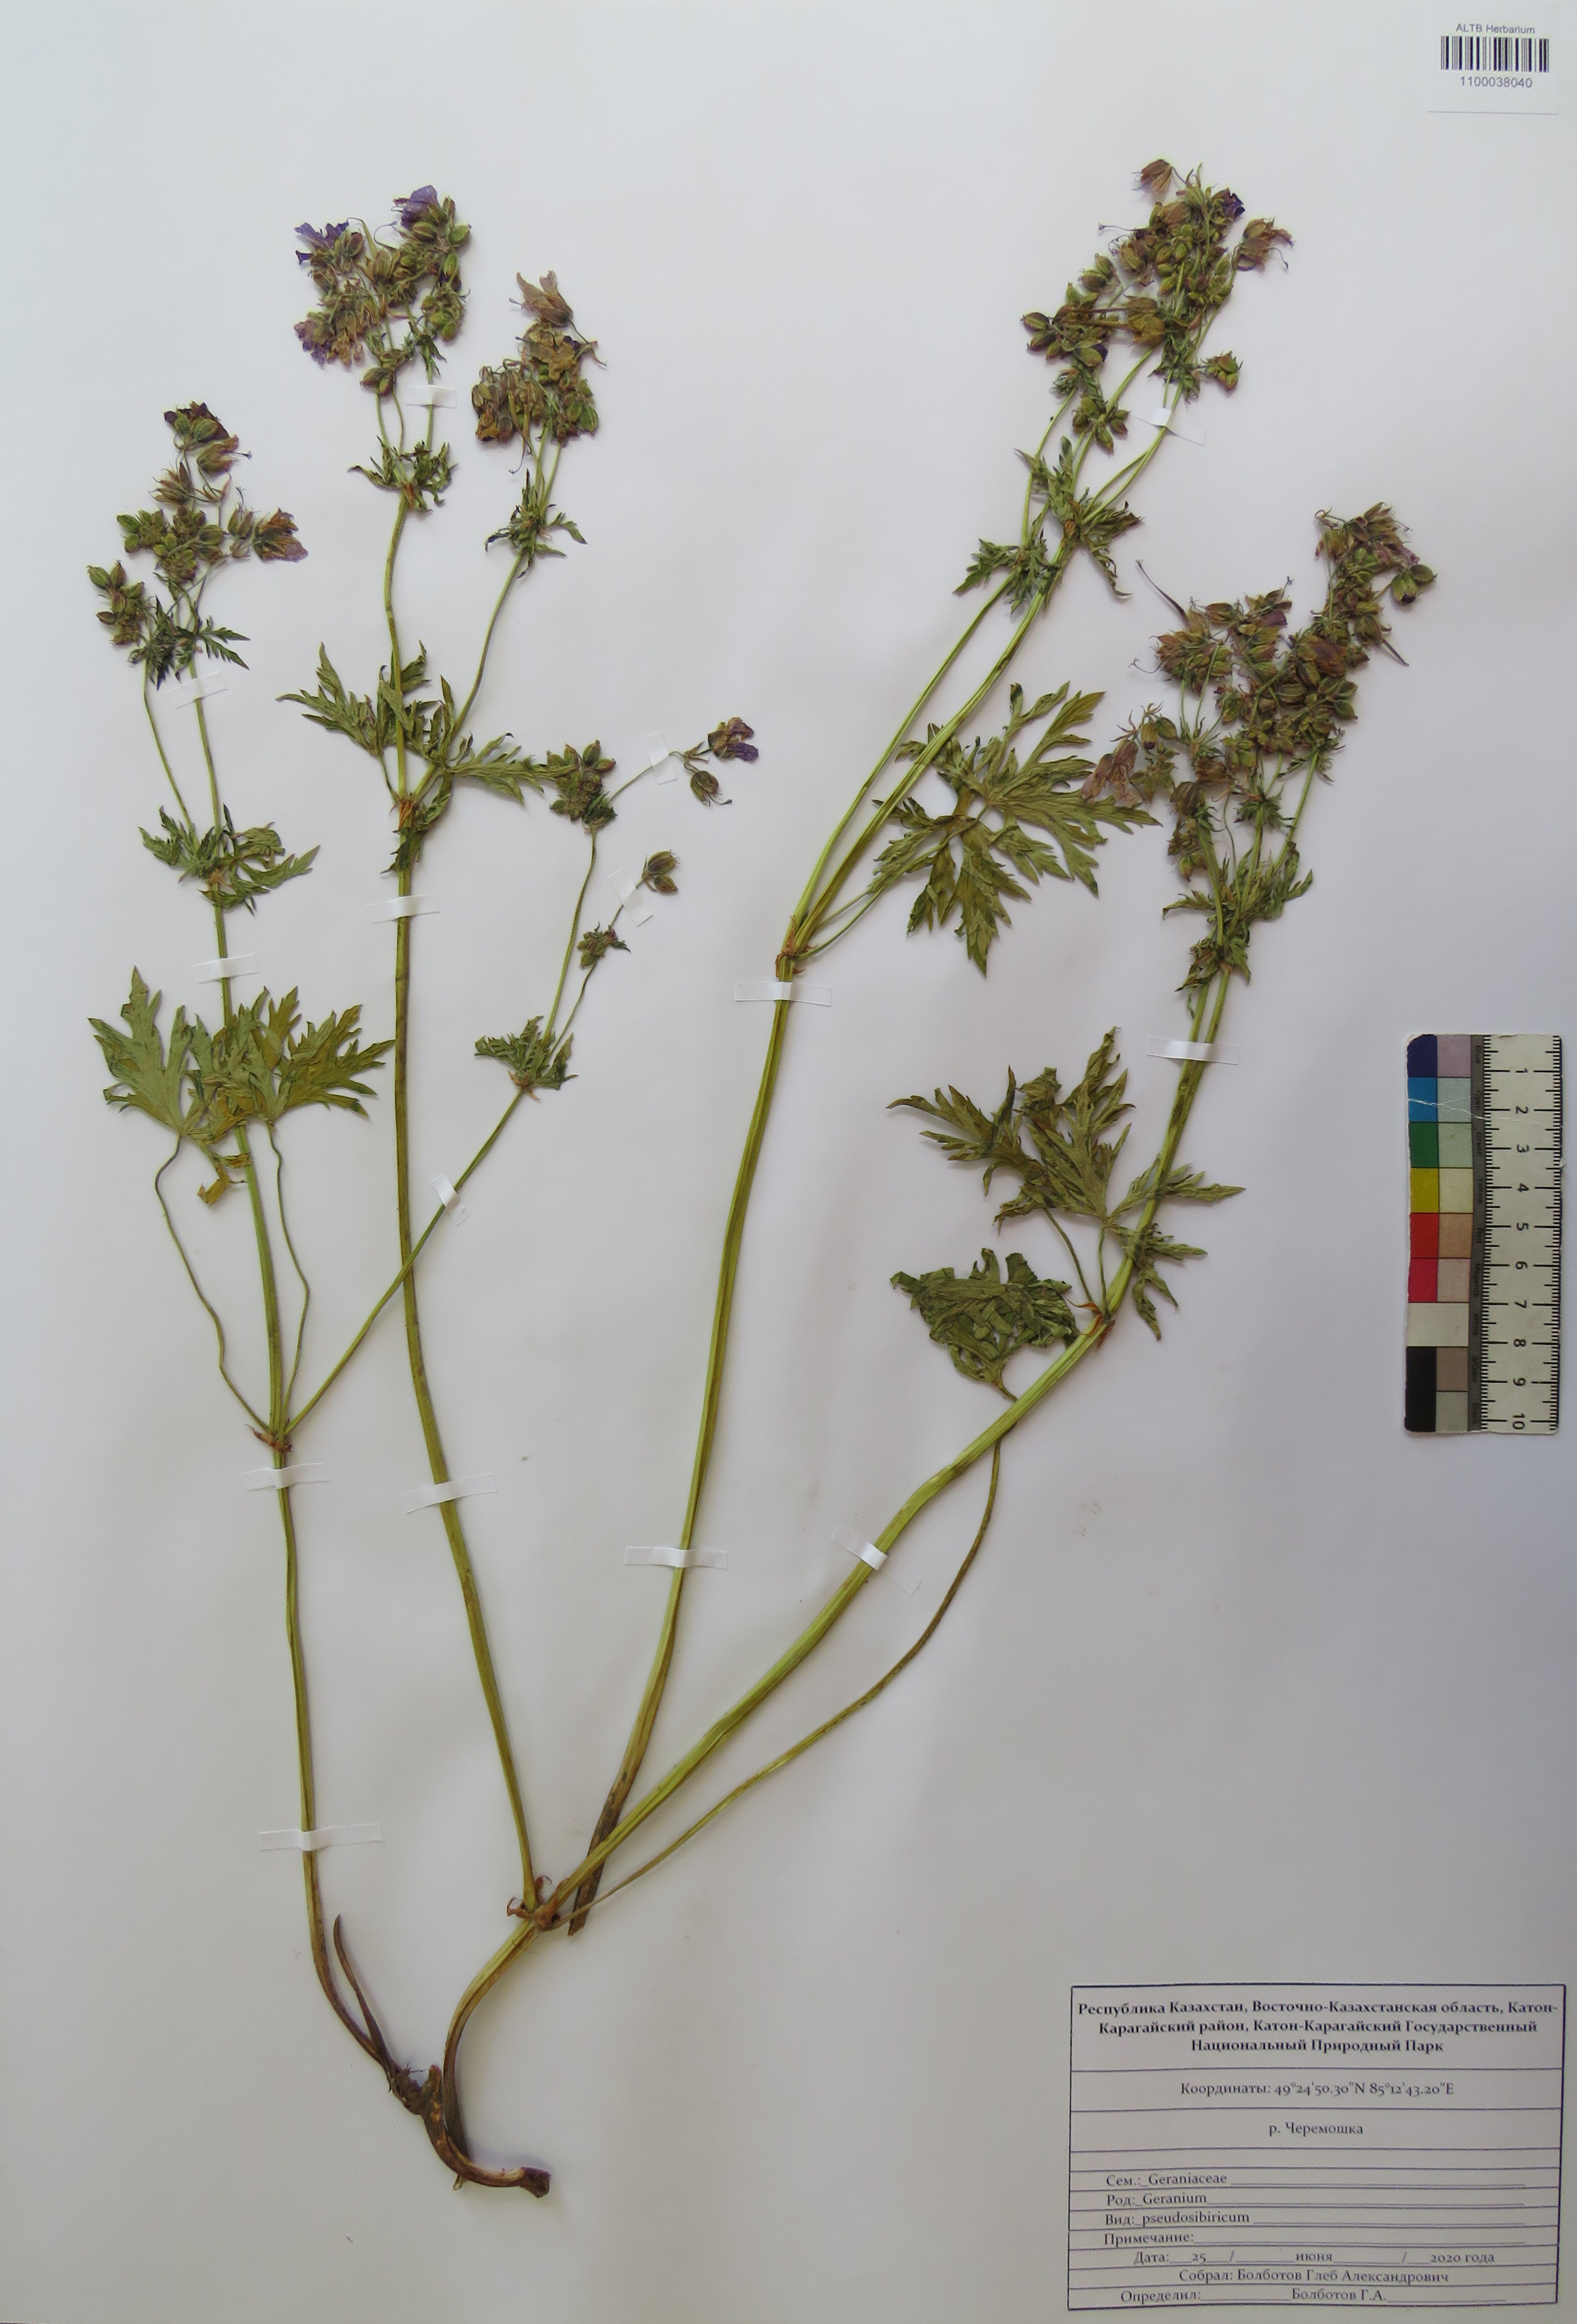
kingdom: Plantae
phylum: Tracheophyta
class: Magnoliopsida
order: Geraniales
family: Geraniaceae
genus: Geranium
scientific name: Geranium pseudosibiricum
